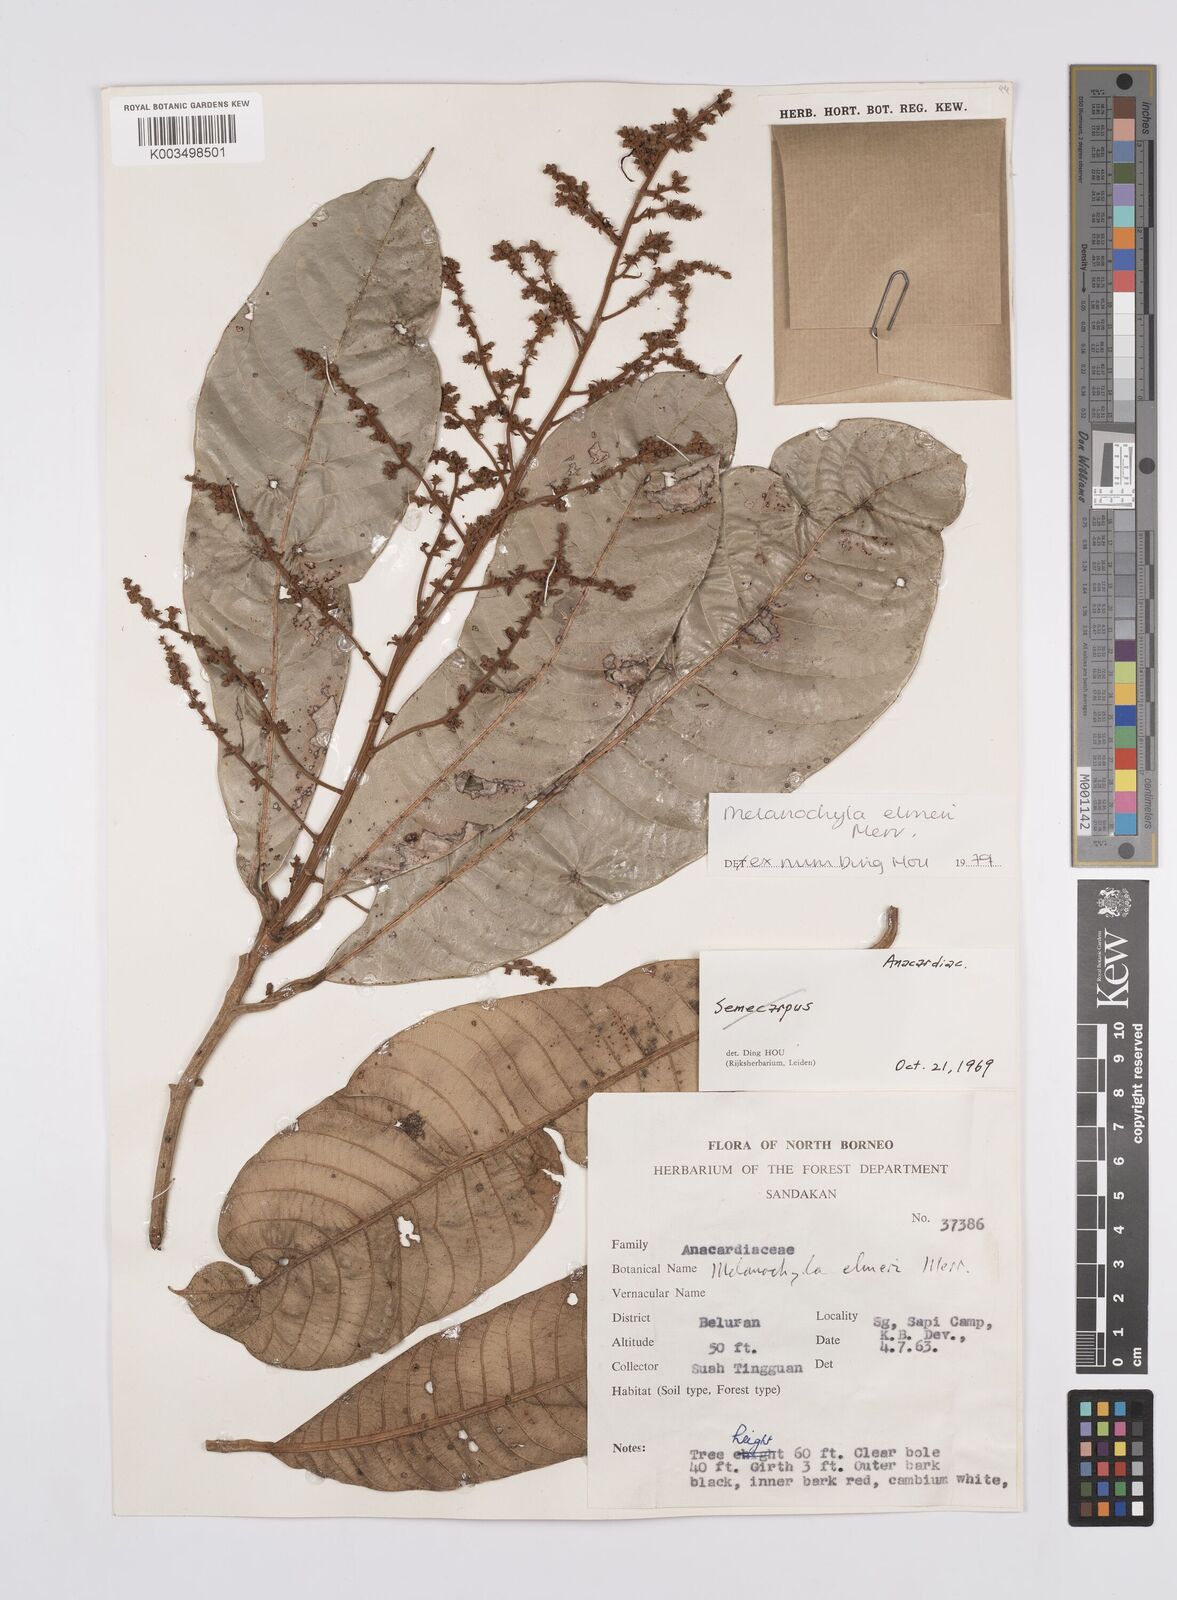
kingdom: Plantae
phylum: Tracheophyta
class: Magnoliopsida
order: Sapindales
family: Anacardiaceae
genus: Melanochyla
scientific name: Melanochyla elmeri
